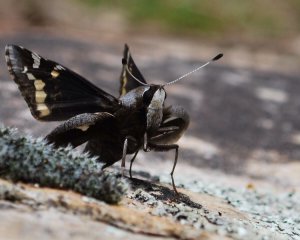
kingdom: Animalia
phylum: Arthropoda
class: Insecta
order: Lepidoptera
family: Hesperiidae
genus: Megathymus
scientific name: Megathymus yuccae
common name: Yucca Giant-Skipper
